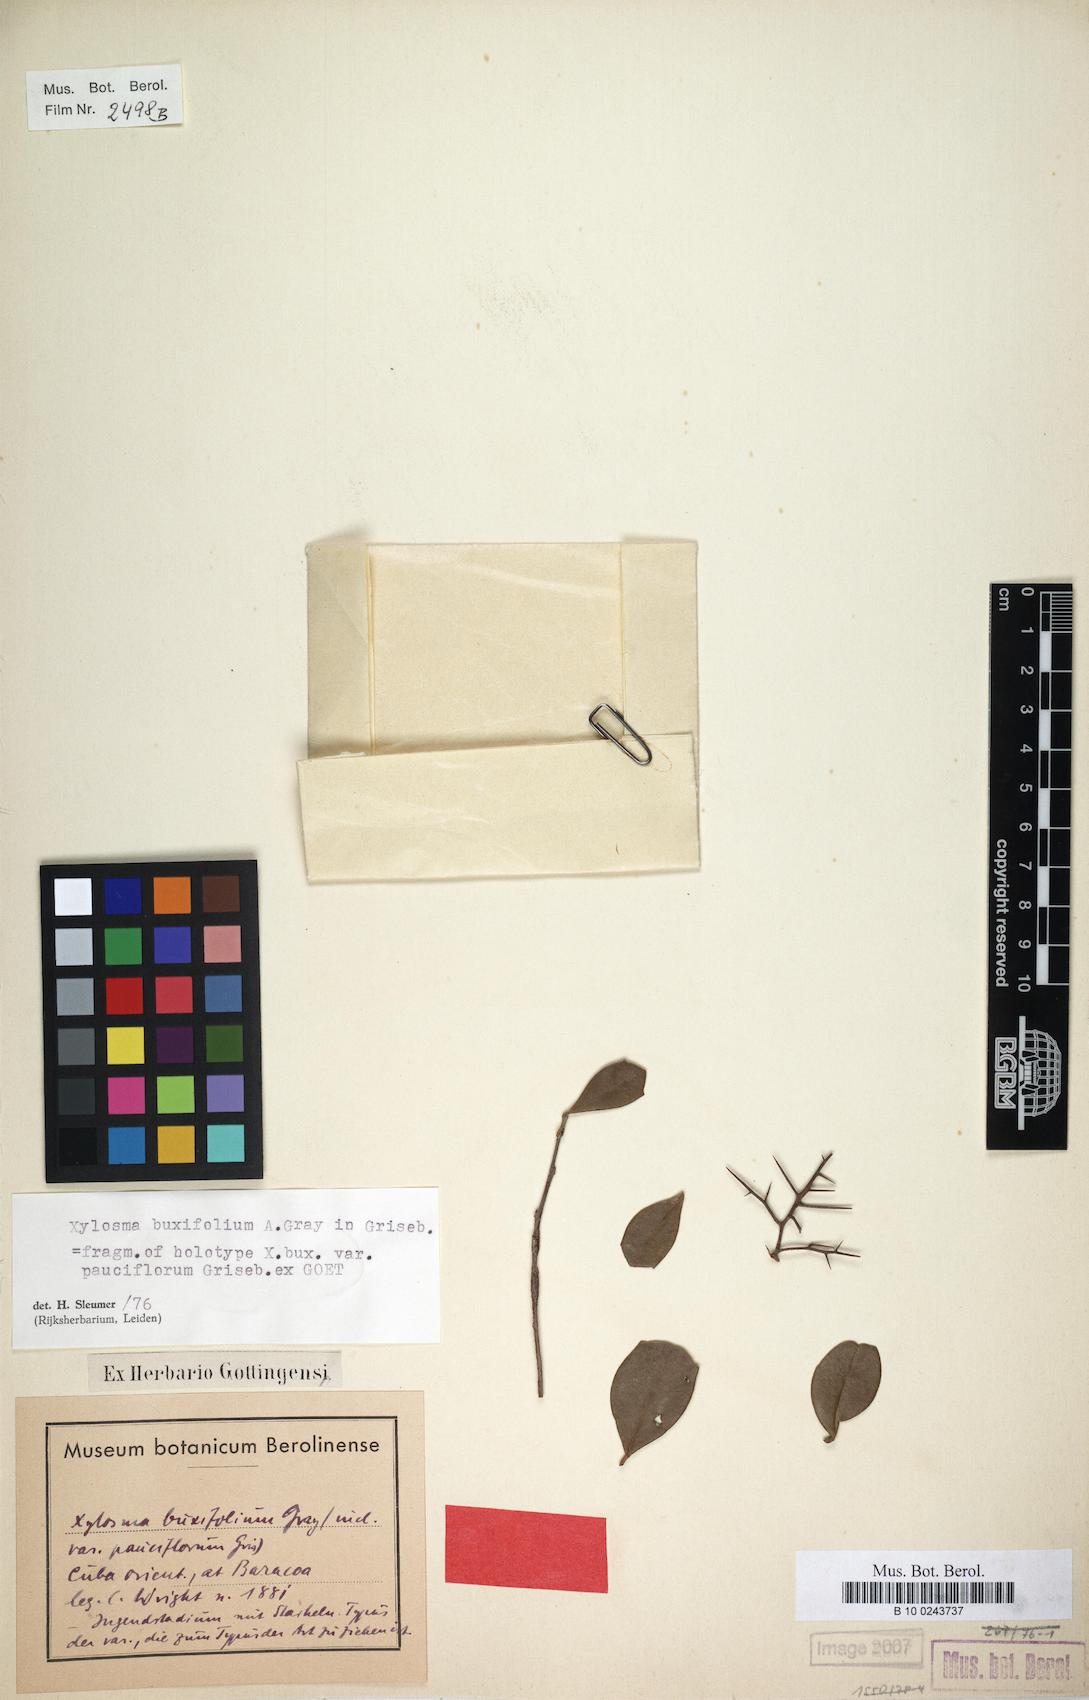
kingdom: Plantae
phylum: Tracheophyta
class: Magnoliopsida
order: Malpighiales
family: Salicaceae
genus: Xylosma
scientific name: Xylosma buxifolia
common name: Cockspur
